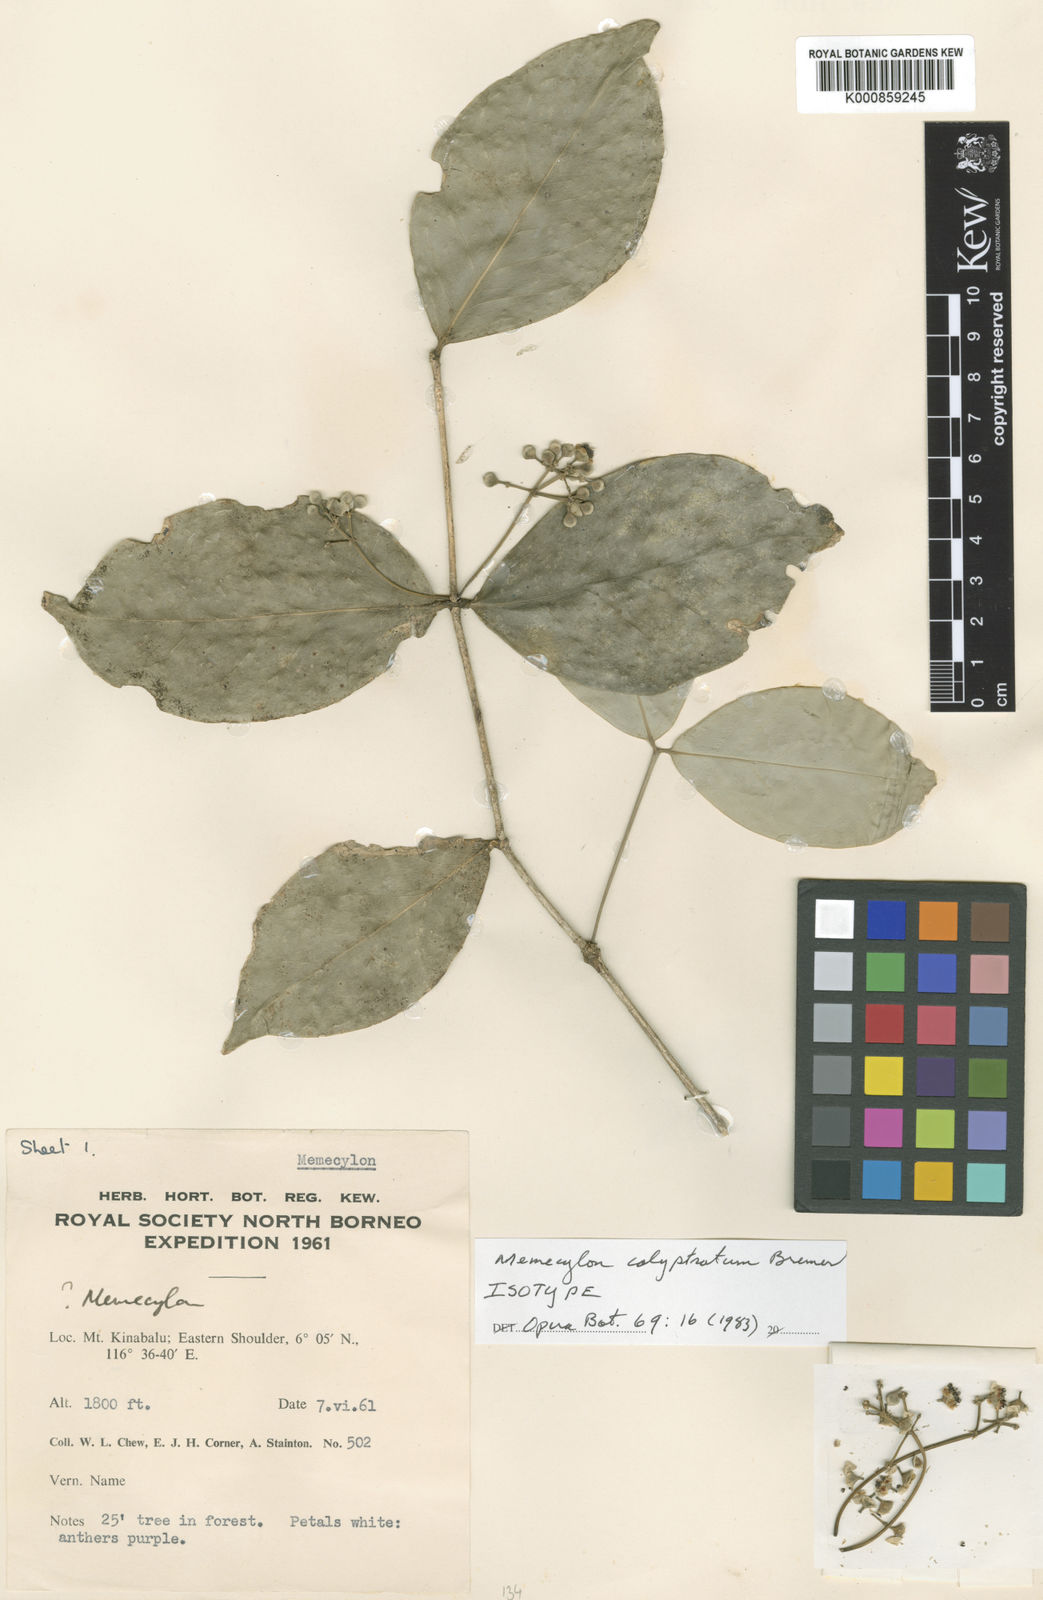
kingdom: Plantae
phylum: Tracheophyta
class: Magnoliopsida
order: Myrtales
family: Melastomataceae
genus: Memecylon
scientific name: Memecylon calyptratum
